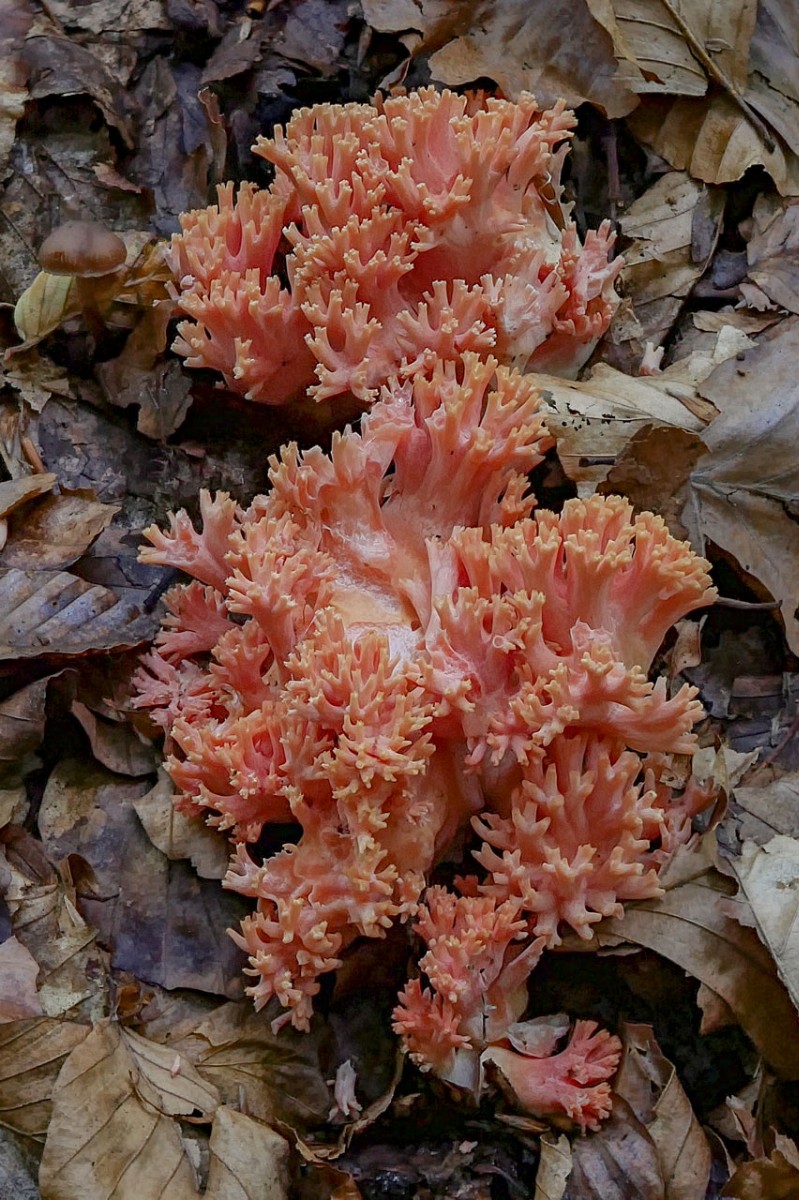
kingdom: Fungi
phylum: Basidiomycota
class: Agaricomycetes
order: Gomphales
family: Gomphaceae
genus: Ramaria
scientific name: Ramaria fagetorum
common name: abrikos-koralsvamp
